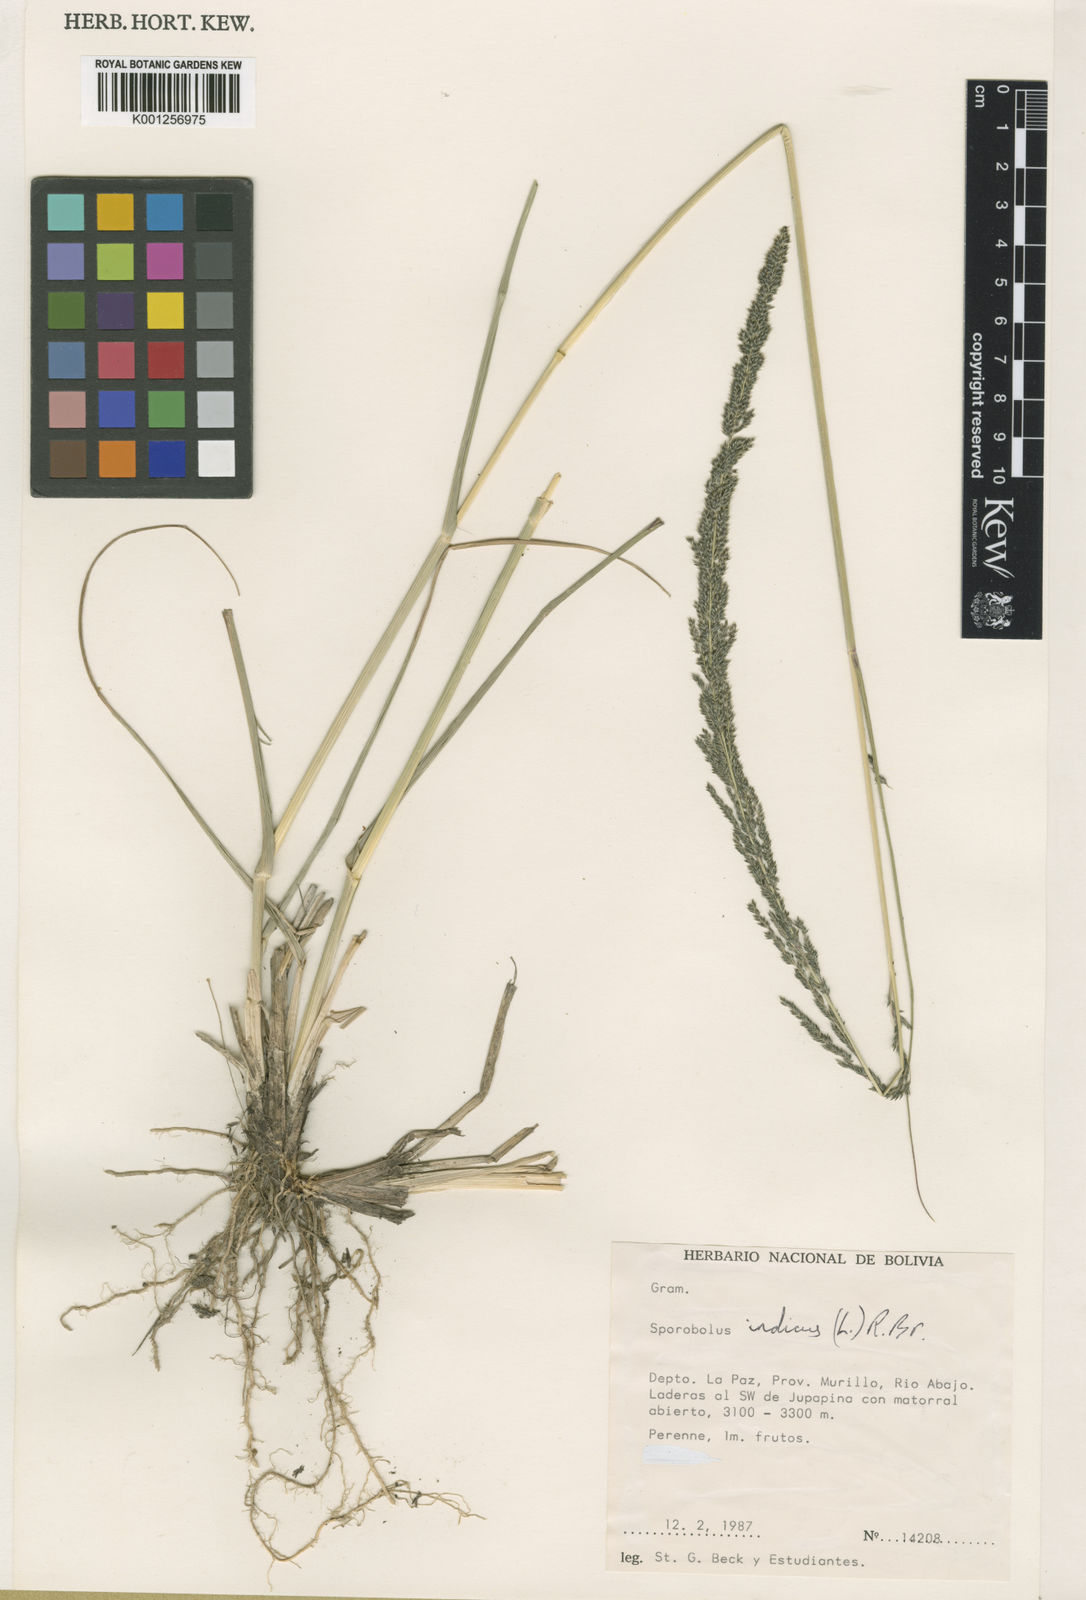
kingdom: Plantae
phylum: Tracheophyta
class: Liliopsida
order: Poales
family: Poaceae
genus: Sporobolus
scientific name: Sporobolus indicus
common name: Smut grass
